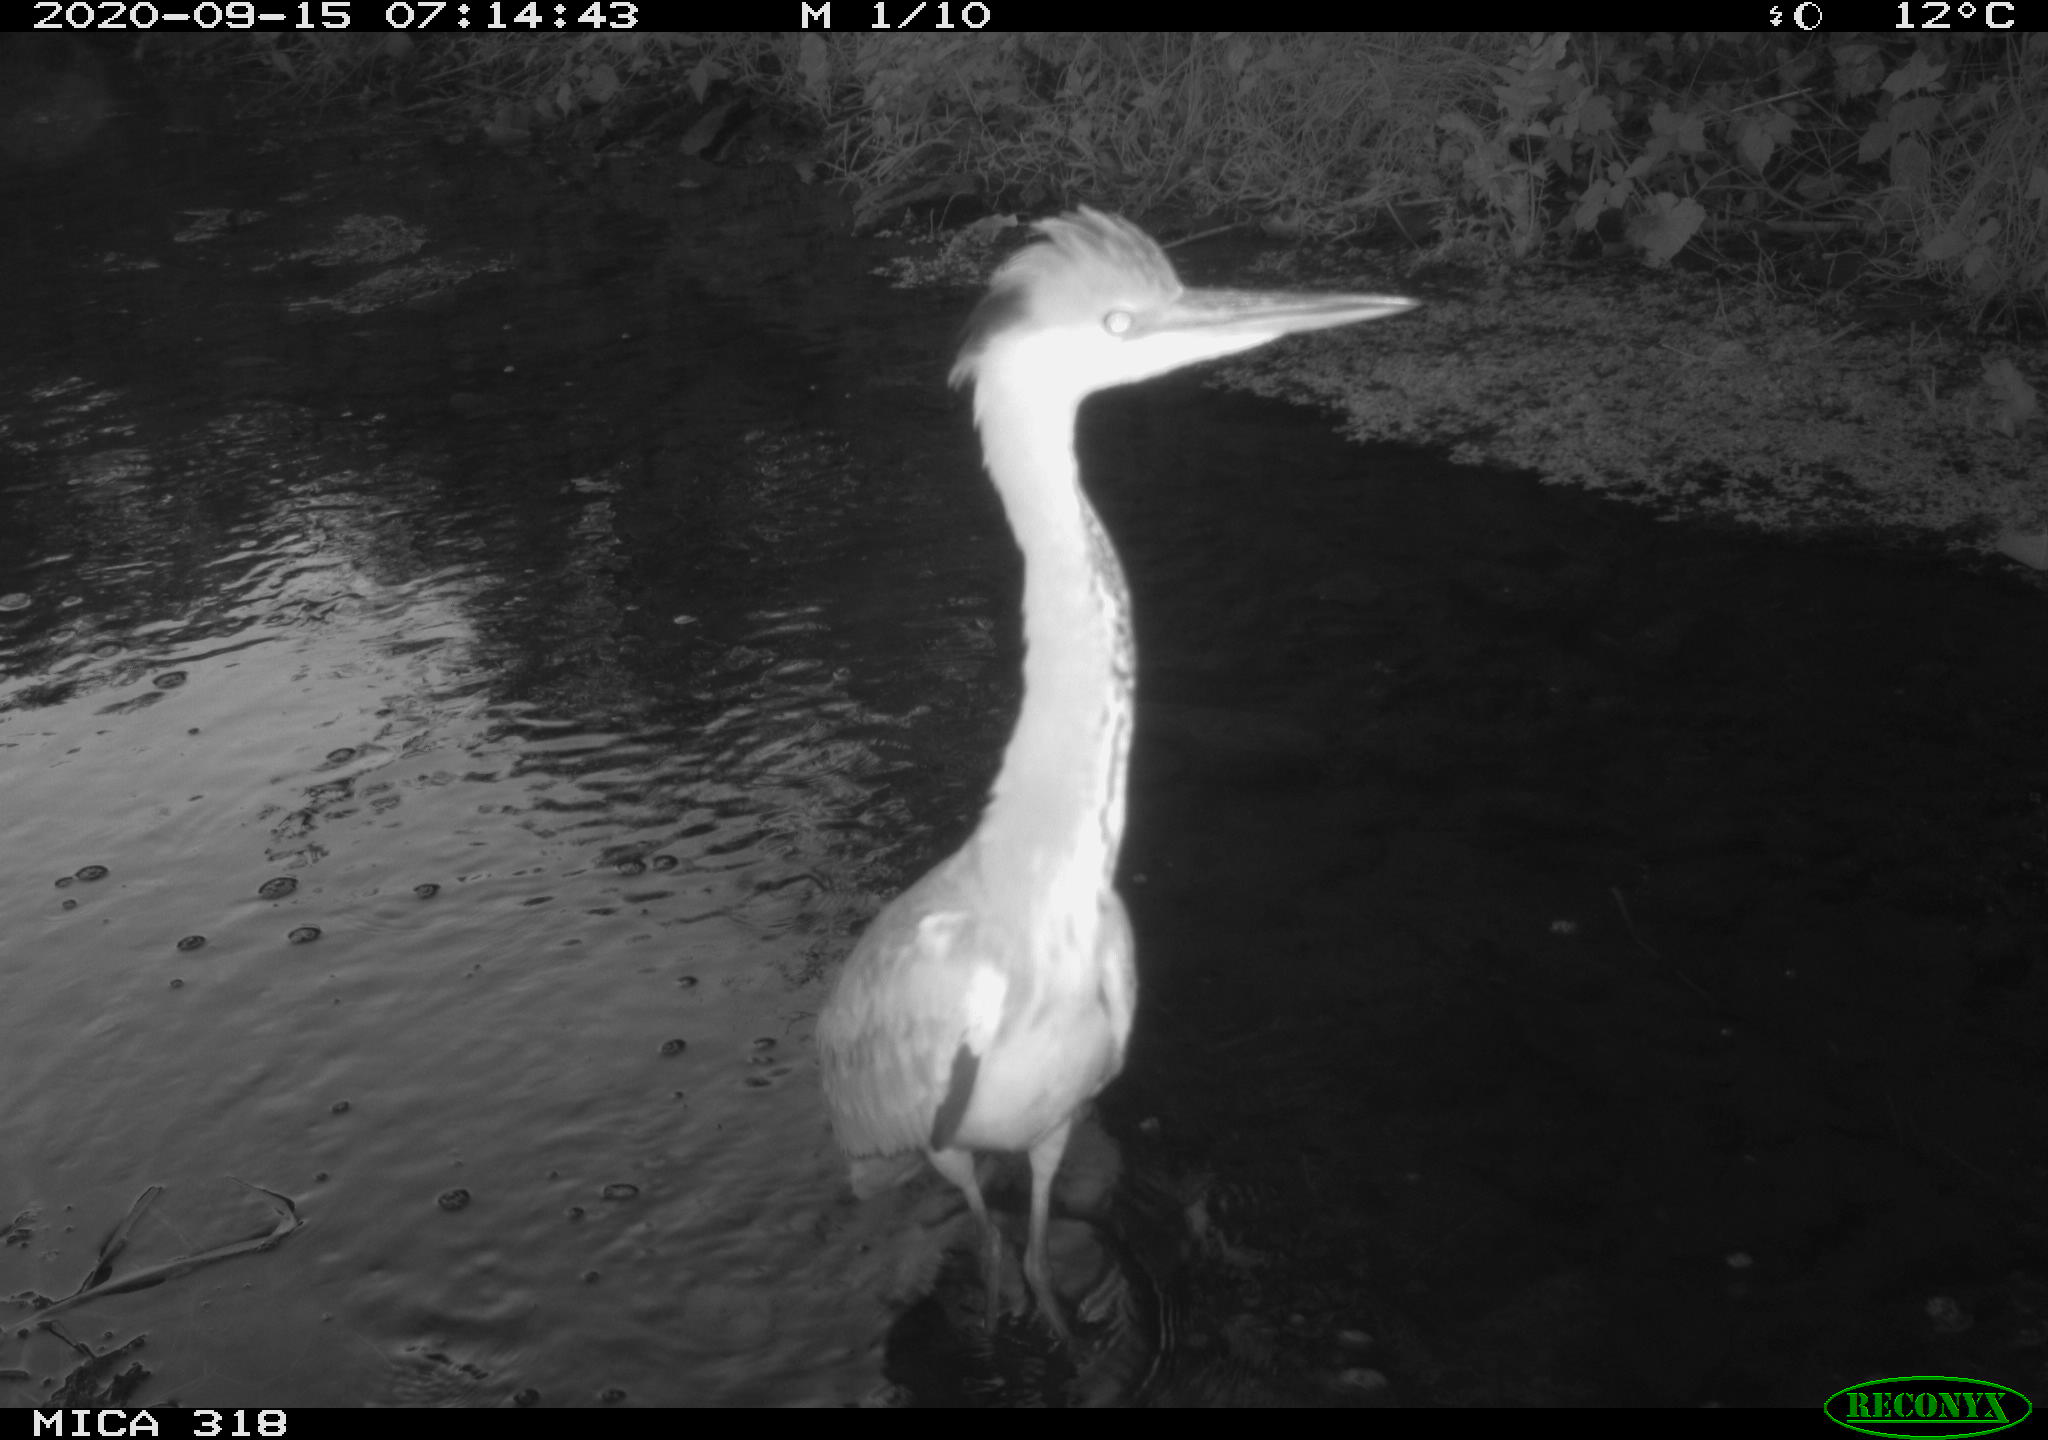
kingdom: Animalia
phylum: Chordata
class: Aves
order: Pelecaniformes
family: Ardeidae
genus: Ardea
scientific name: Ardea
